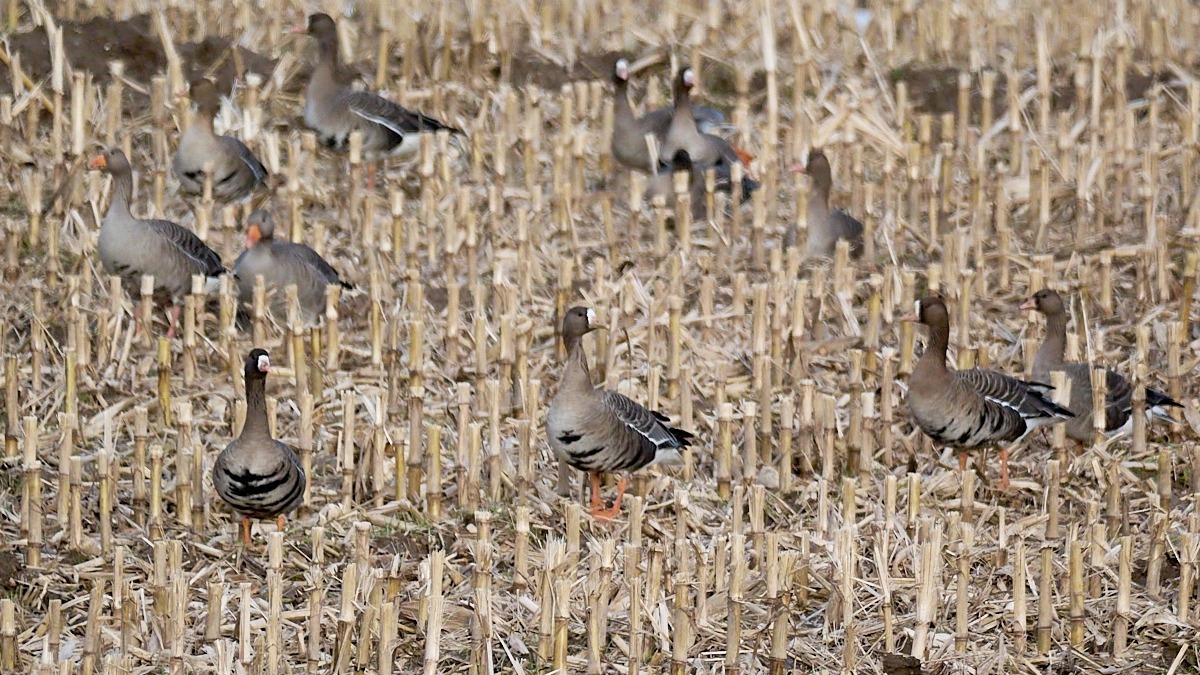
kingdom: Animalia
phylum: Chordata
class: Aves
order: Anseriformes
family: Anatidae
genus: Anser
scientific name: Anser albifrons
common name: Blisgås
